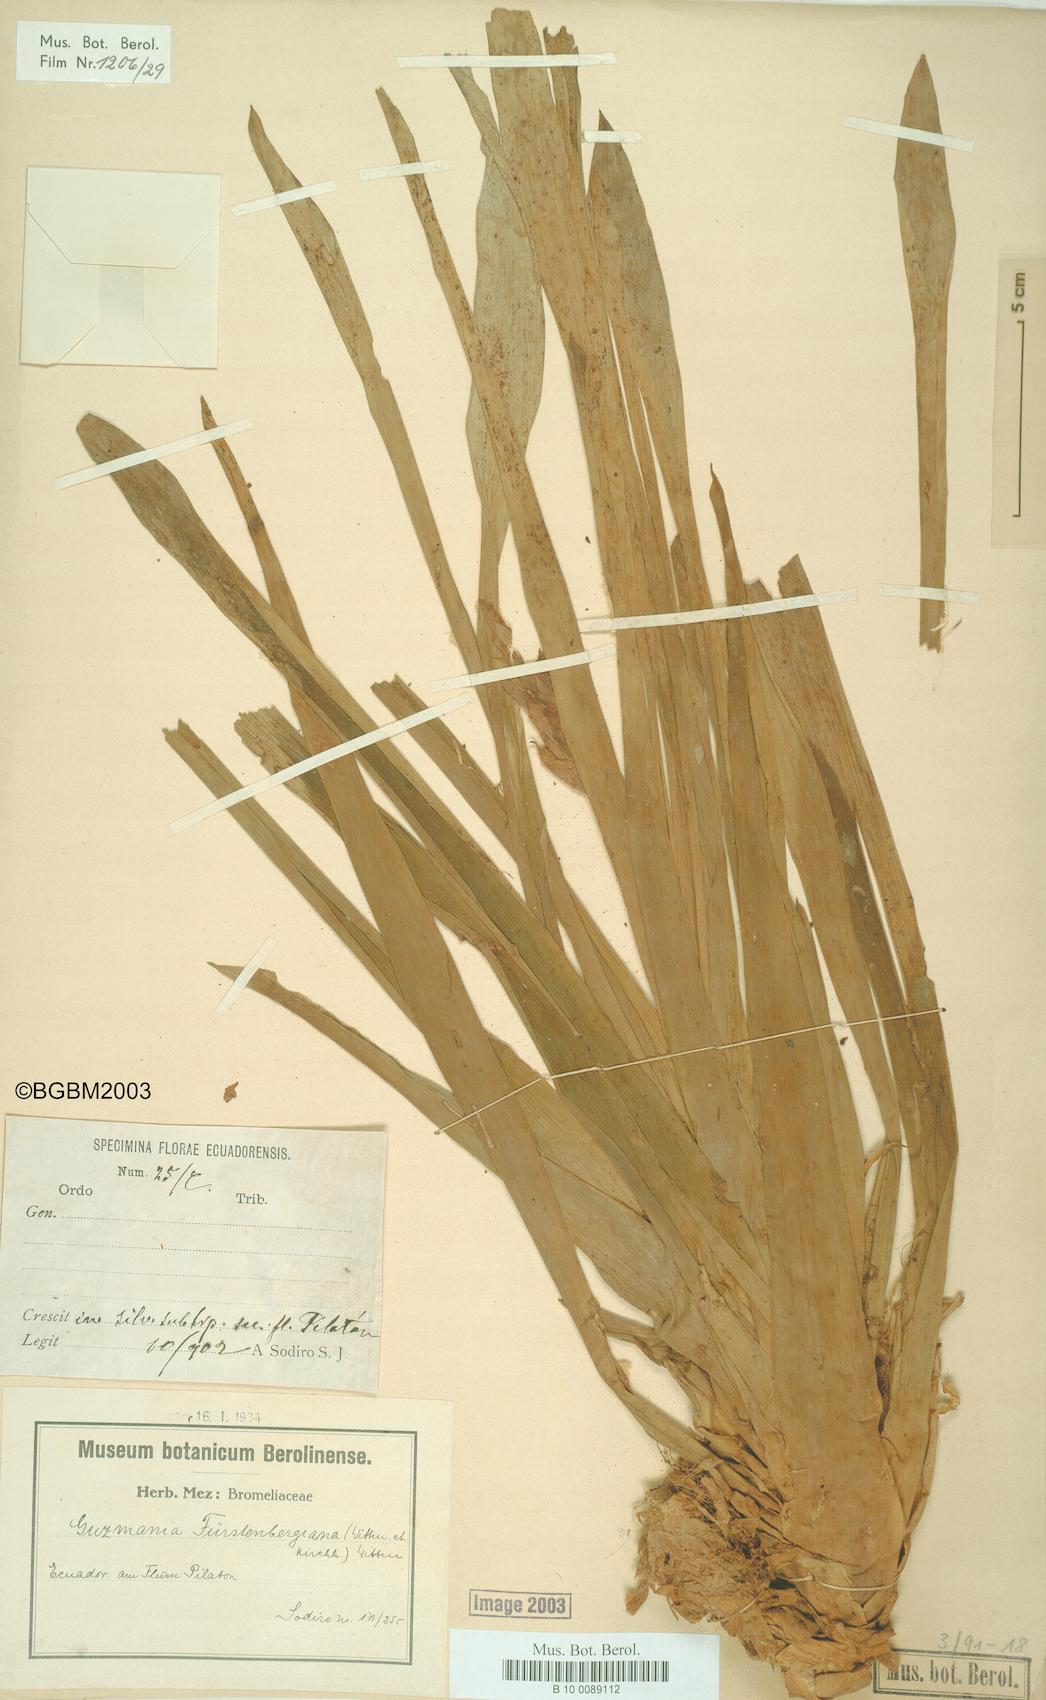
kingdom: Plantae
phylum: Tracheophyta
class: Liliopsida
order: Poales
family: Bromeliaceae
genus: Guzmania
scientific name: Guzmania fuerstenbergiana
